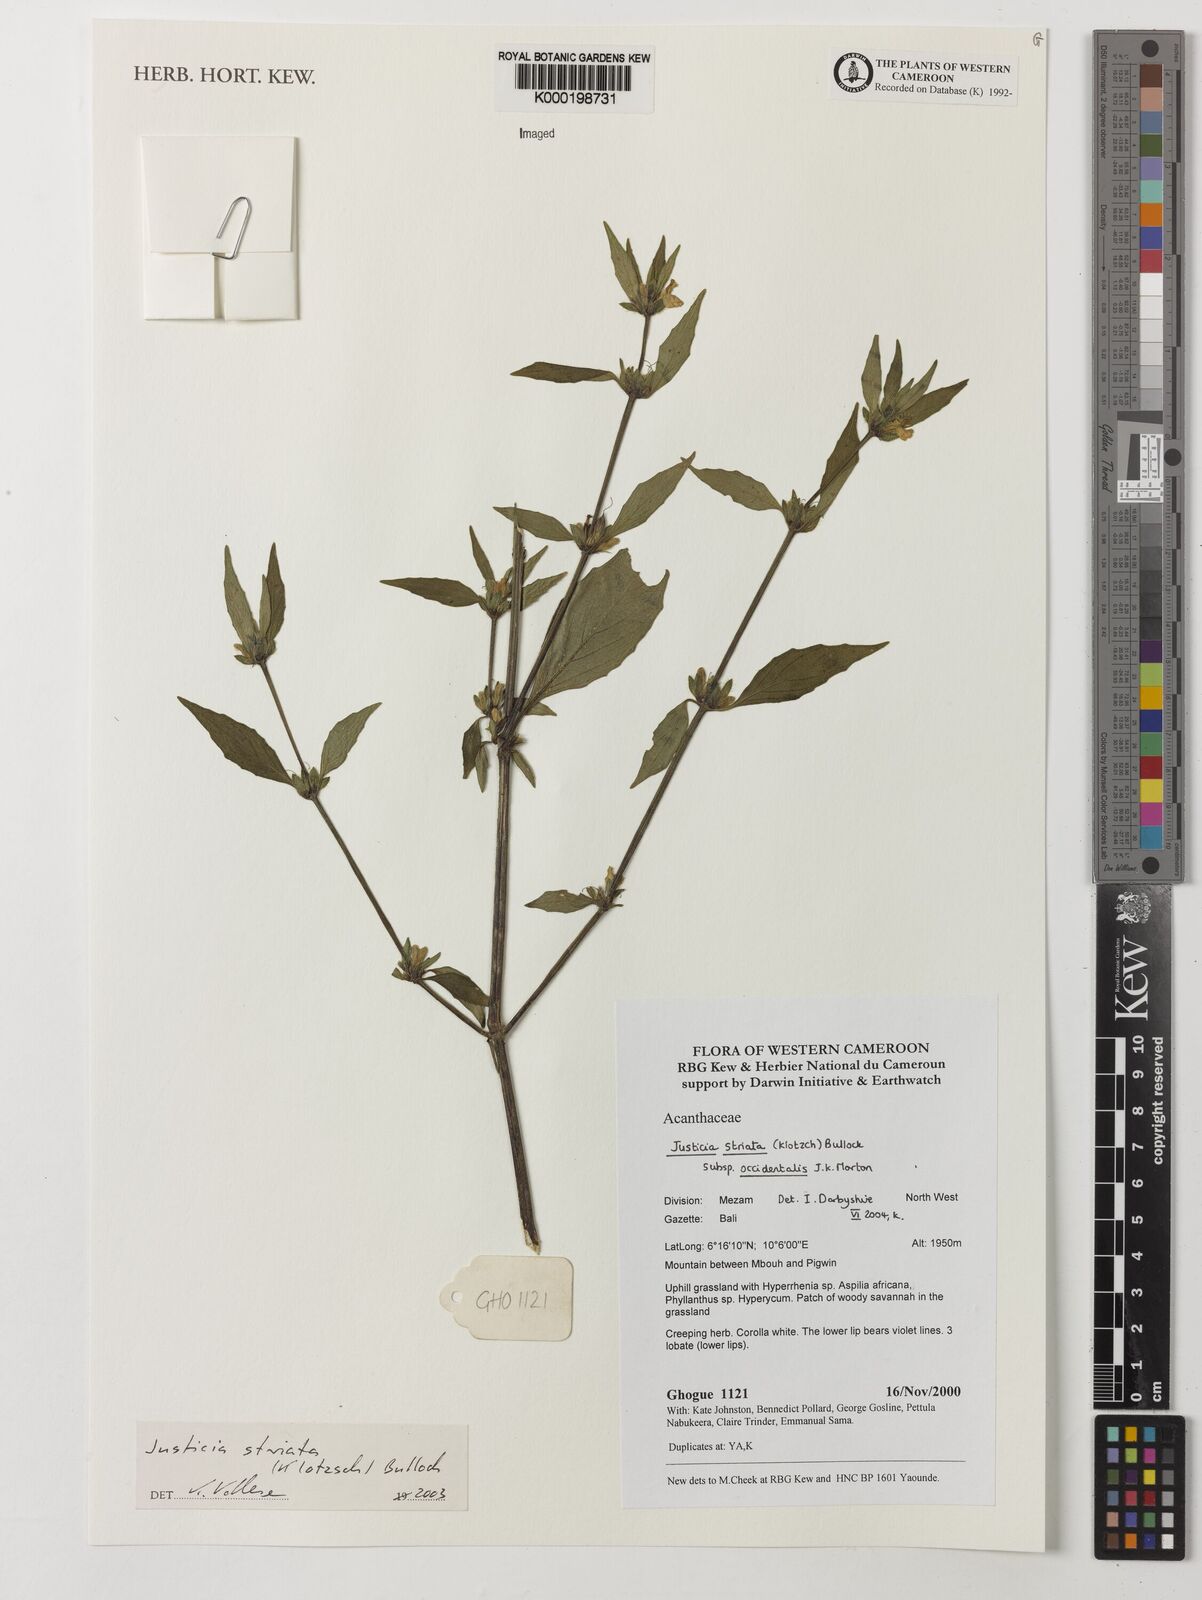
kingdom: Plantae
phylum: Tracheophyta
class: Magnoliopsida
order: Lamiales
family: Acanthaceae
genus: Justicia
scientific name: Justicia striata
